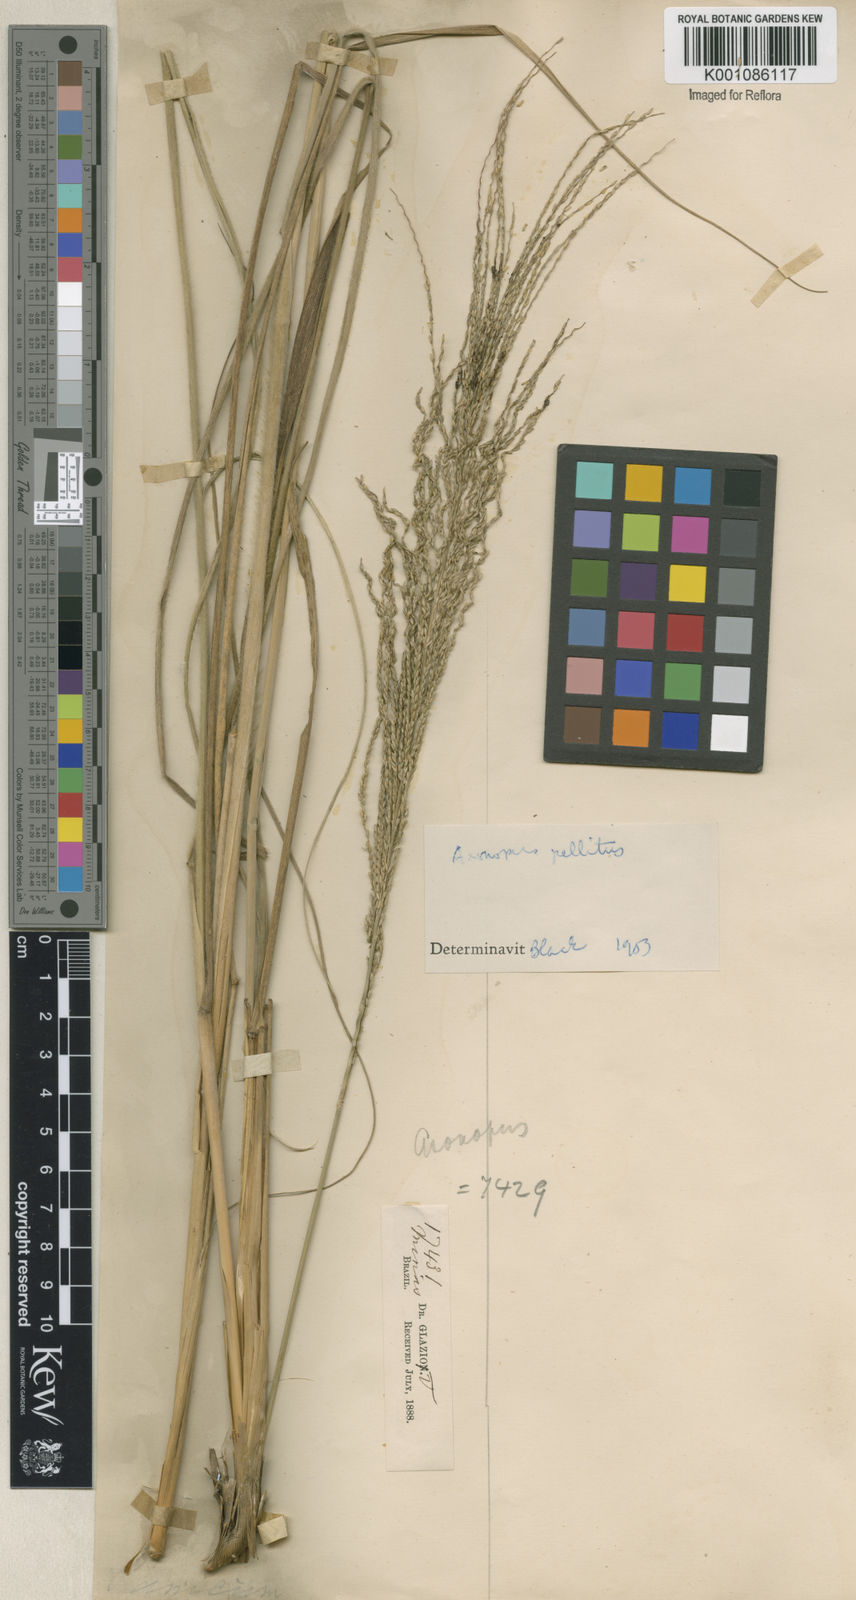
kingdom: Plantae
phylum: Tracheophyta
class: Liliopsida
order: Poales
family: Poaceae
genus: Axonopus
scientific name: Axonopus siccus
